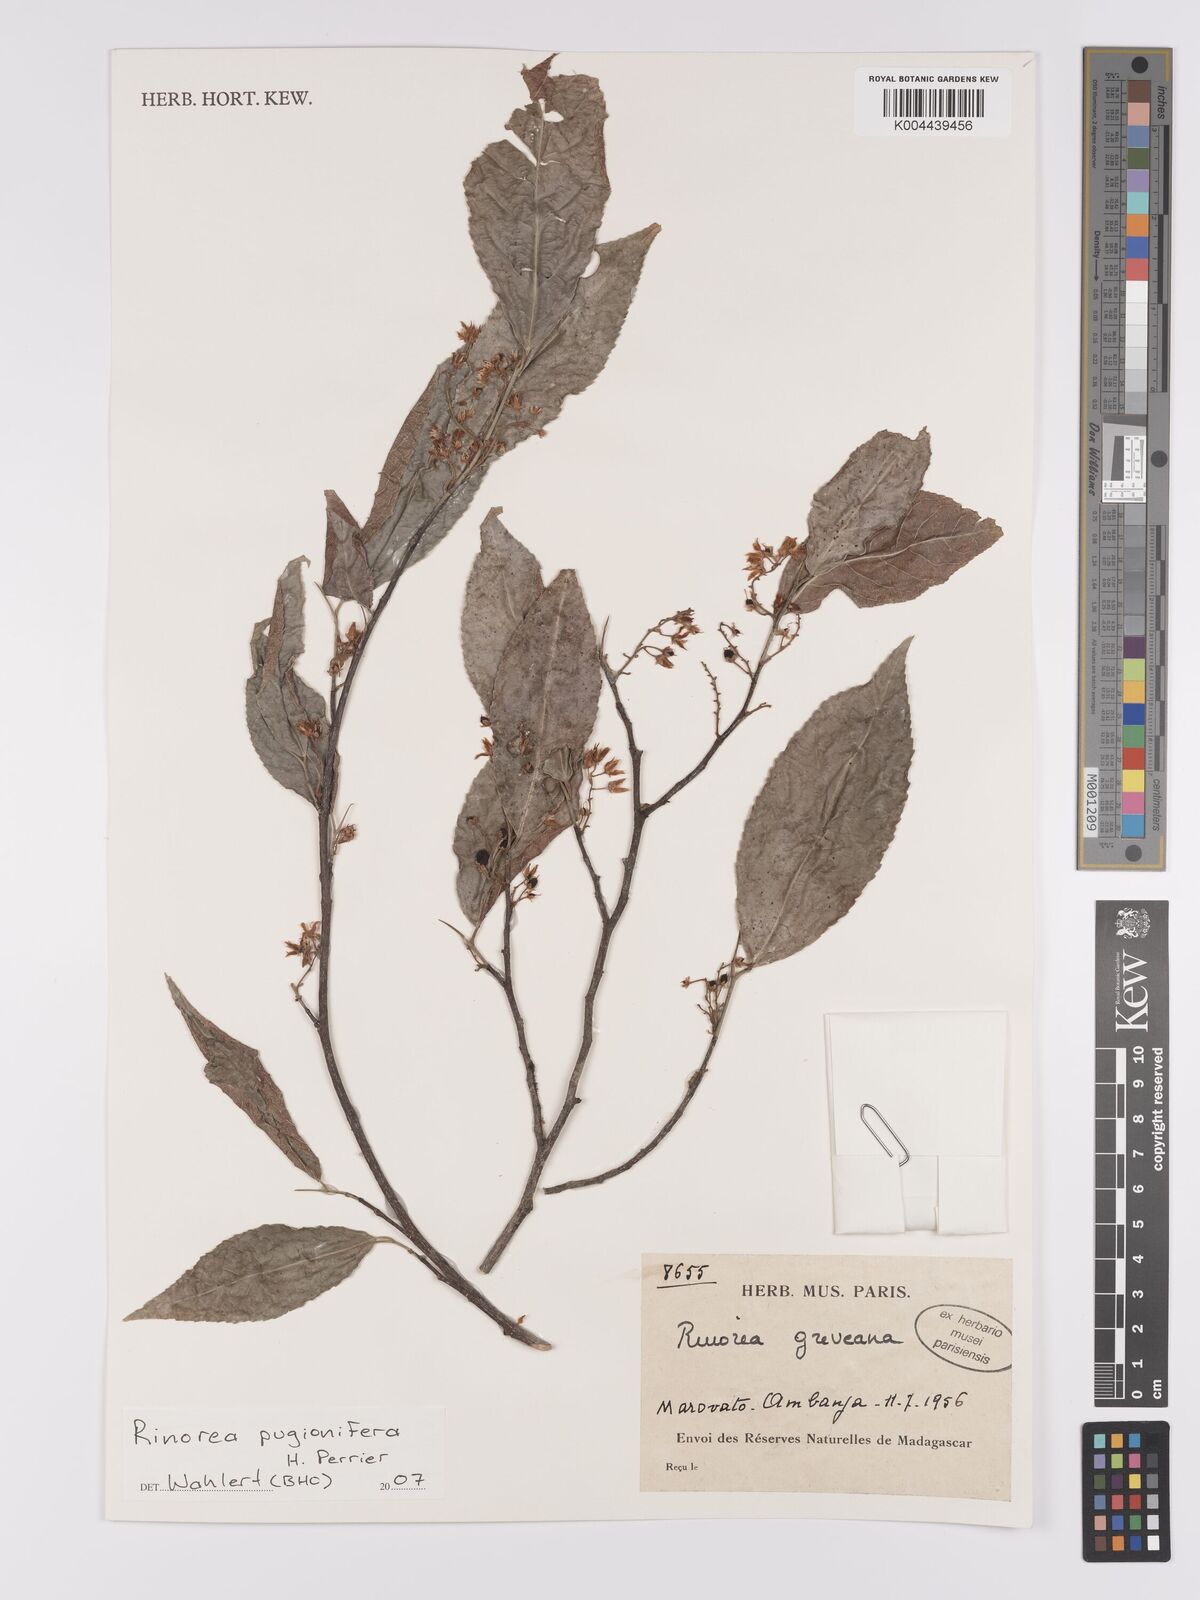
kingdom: Plantae
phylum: Tracheophyta
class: Magnoliopsida
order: Malpighiales
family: Violaceae
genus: Rinorea
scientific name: Rinorea pugionifera
